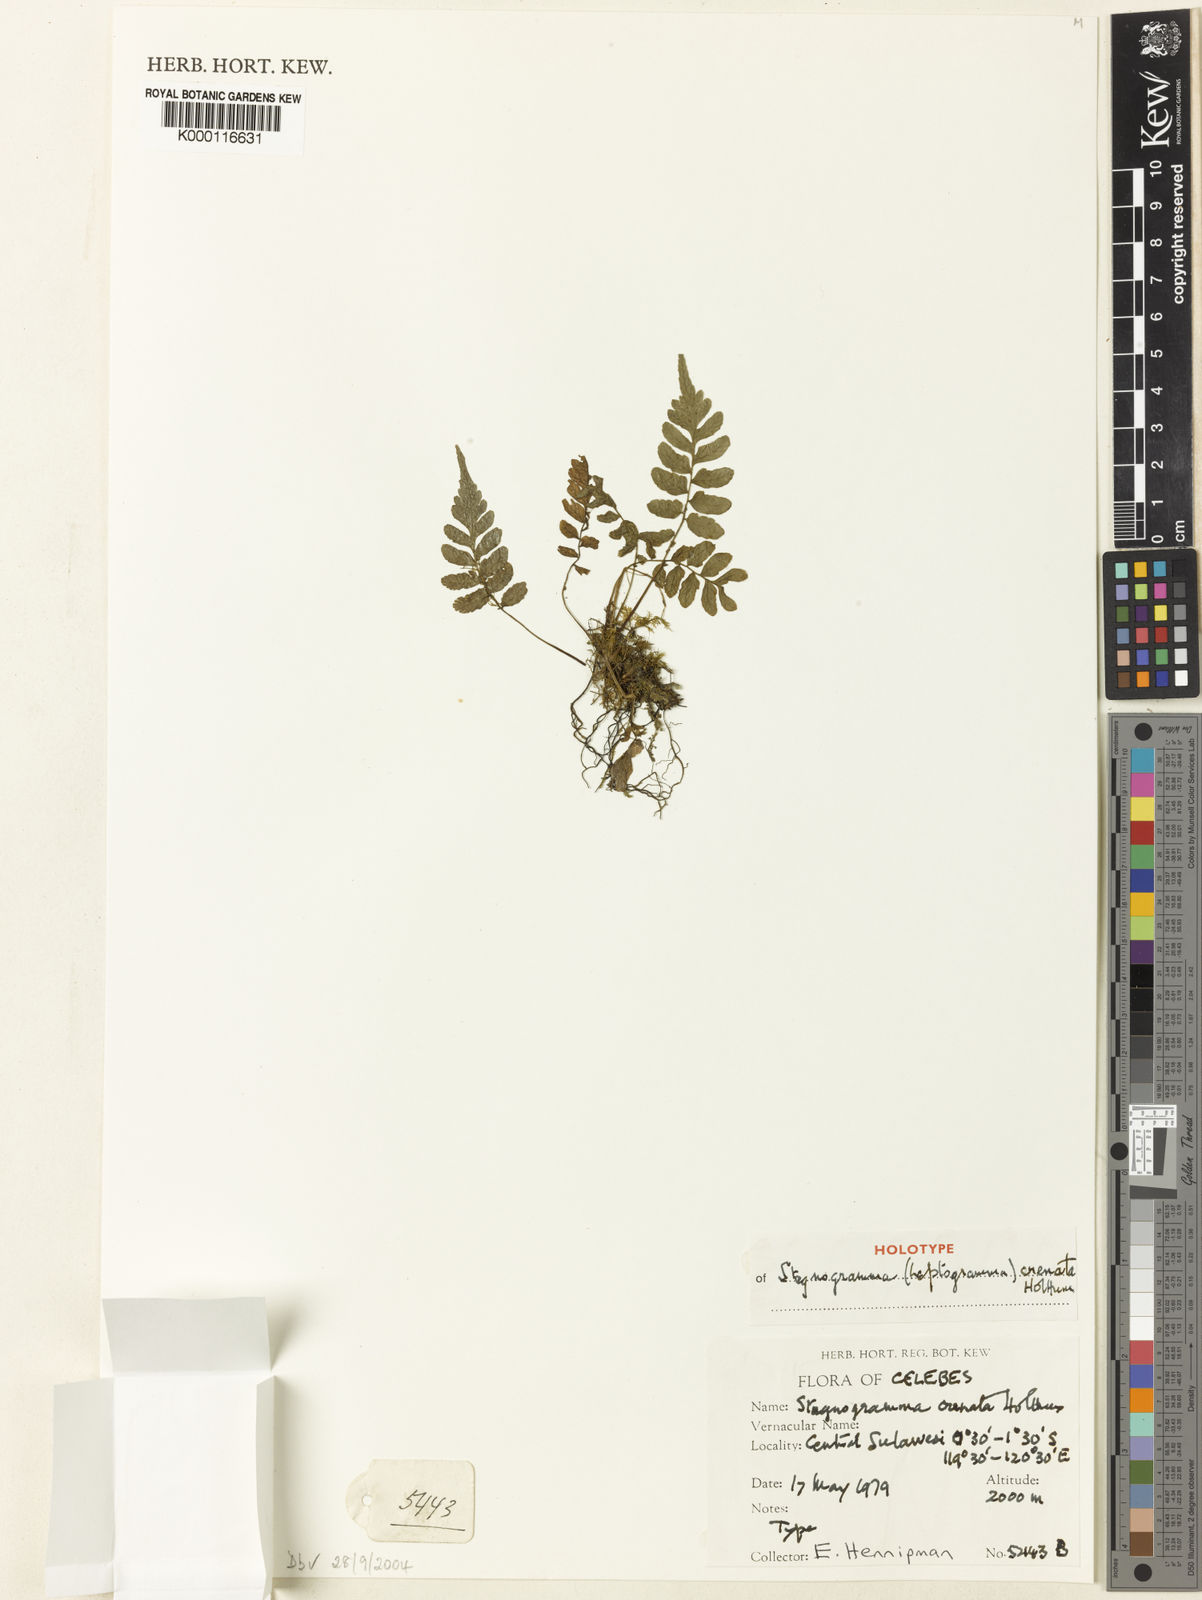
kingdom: Plantae
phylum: Tracheophyta
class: Polypodiopsida
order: Polypodiales
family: Thelypteridaceae
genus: Leptogramma
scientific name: Leptogramma crenata
